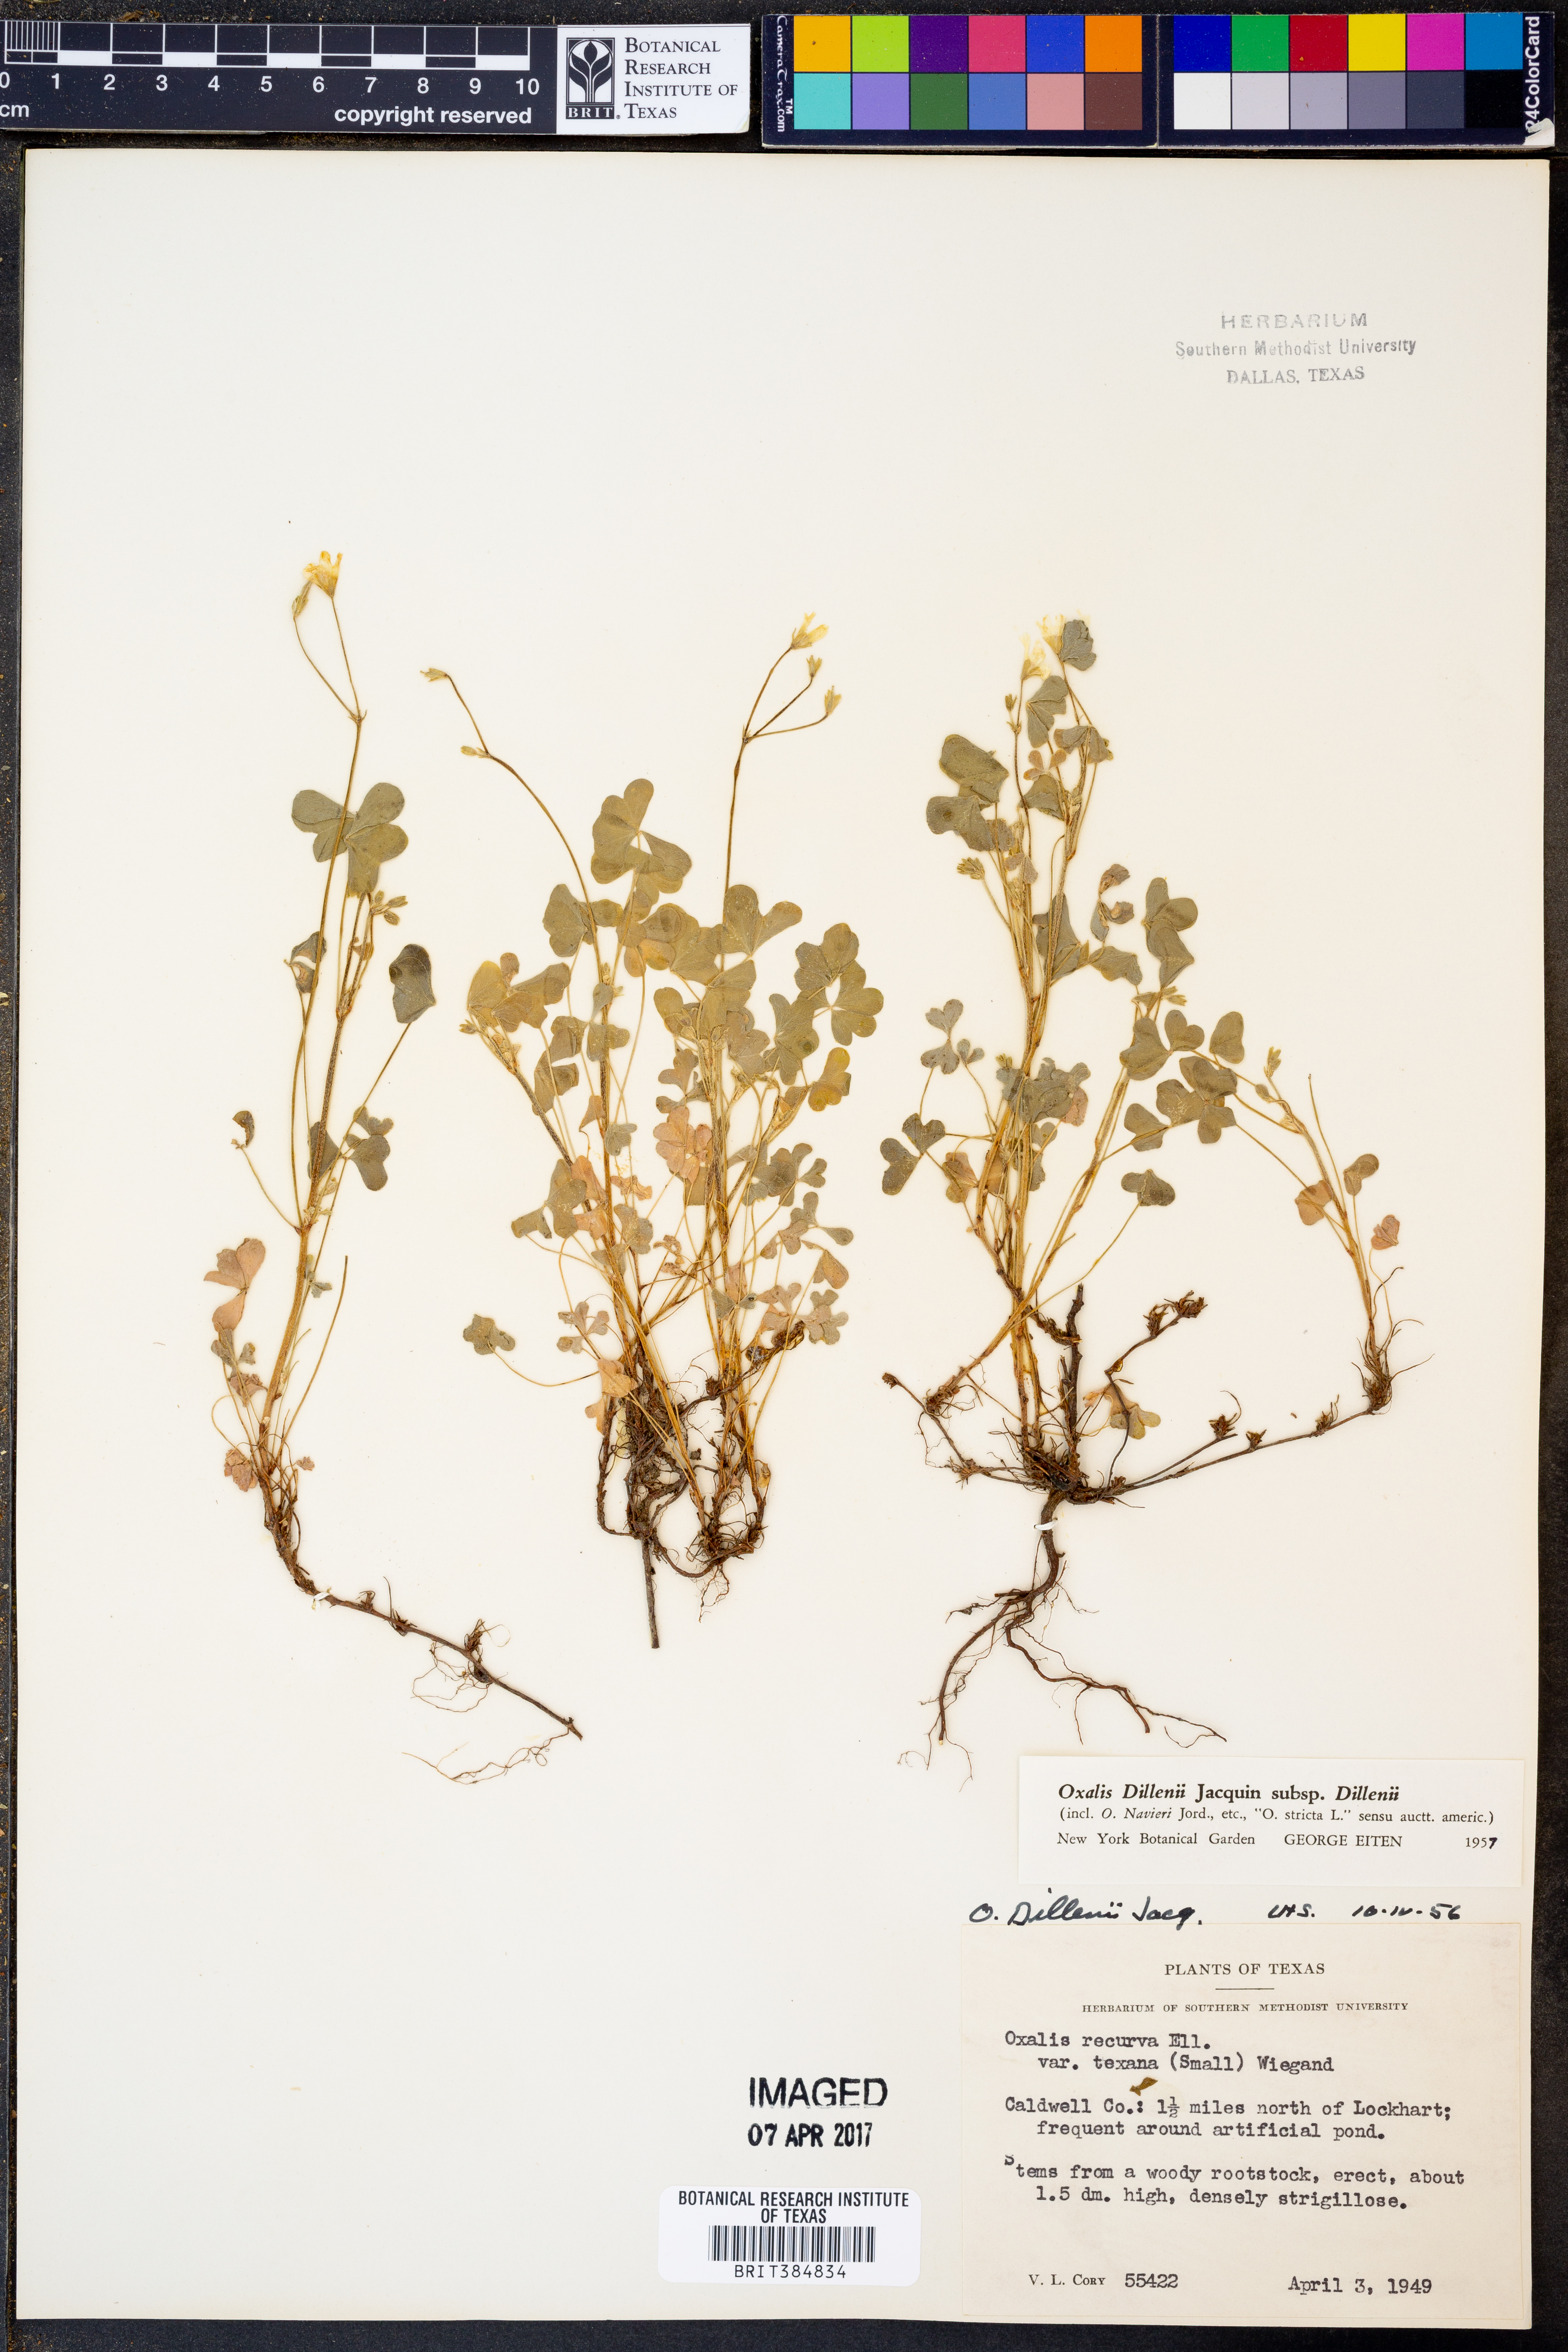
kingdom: Plantae
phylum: Tracheophyta
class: Magnoliopsida
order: Oxalidales
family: Oxalidaceae
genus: Oxalis
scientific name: Oxalis dillenii
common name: Sussex yellow-sorrel
